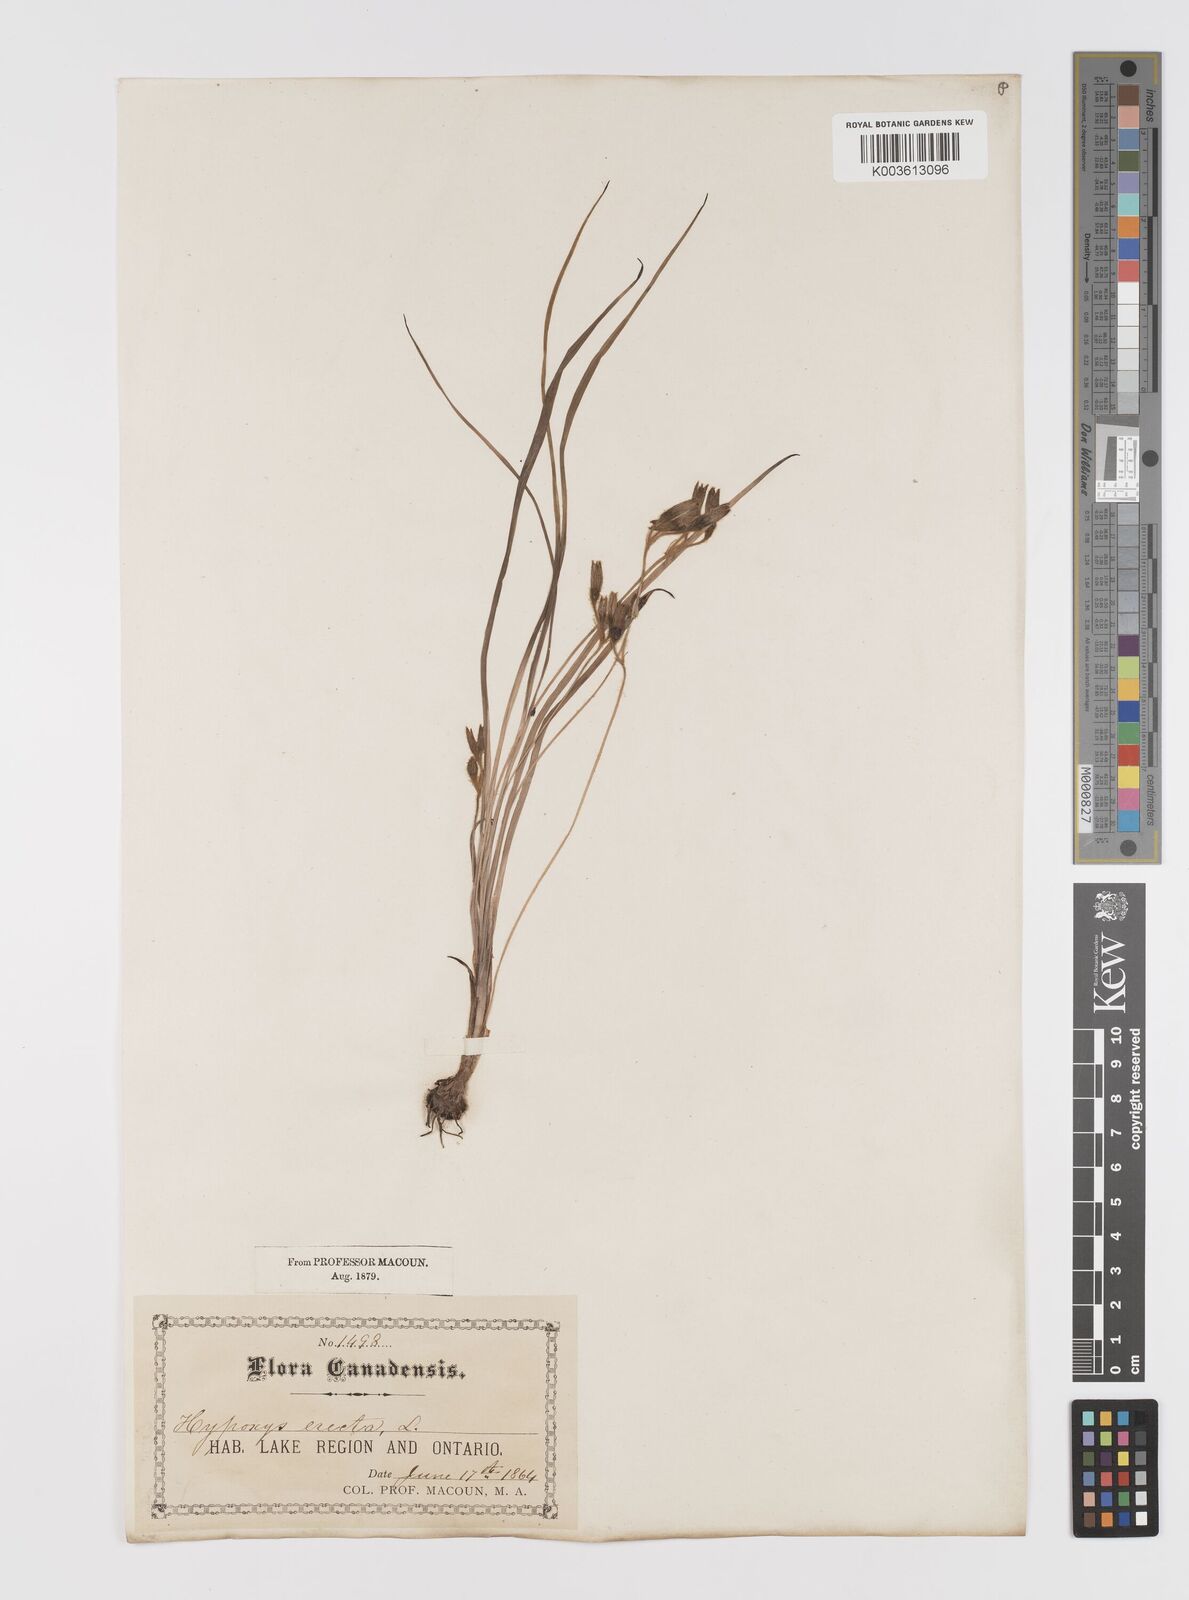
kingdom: Plantae
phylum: Tracheophyta
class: Liliopsida
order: Asparagales
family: Hypoxidaceae
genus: Hypoxis
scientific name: Hypoxis hirsuta
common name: Common goldstar
